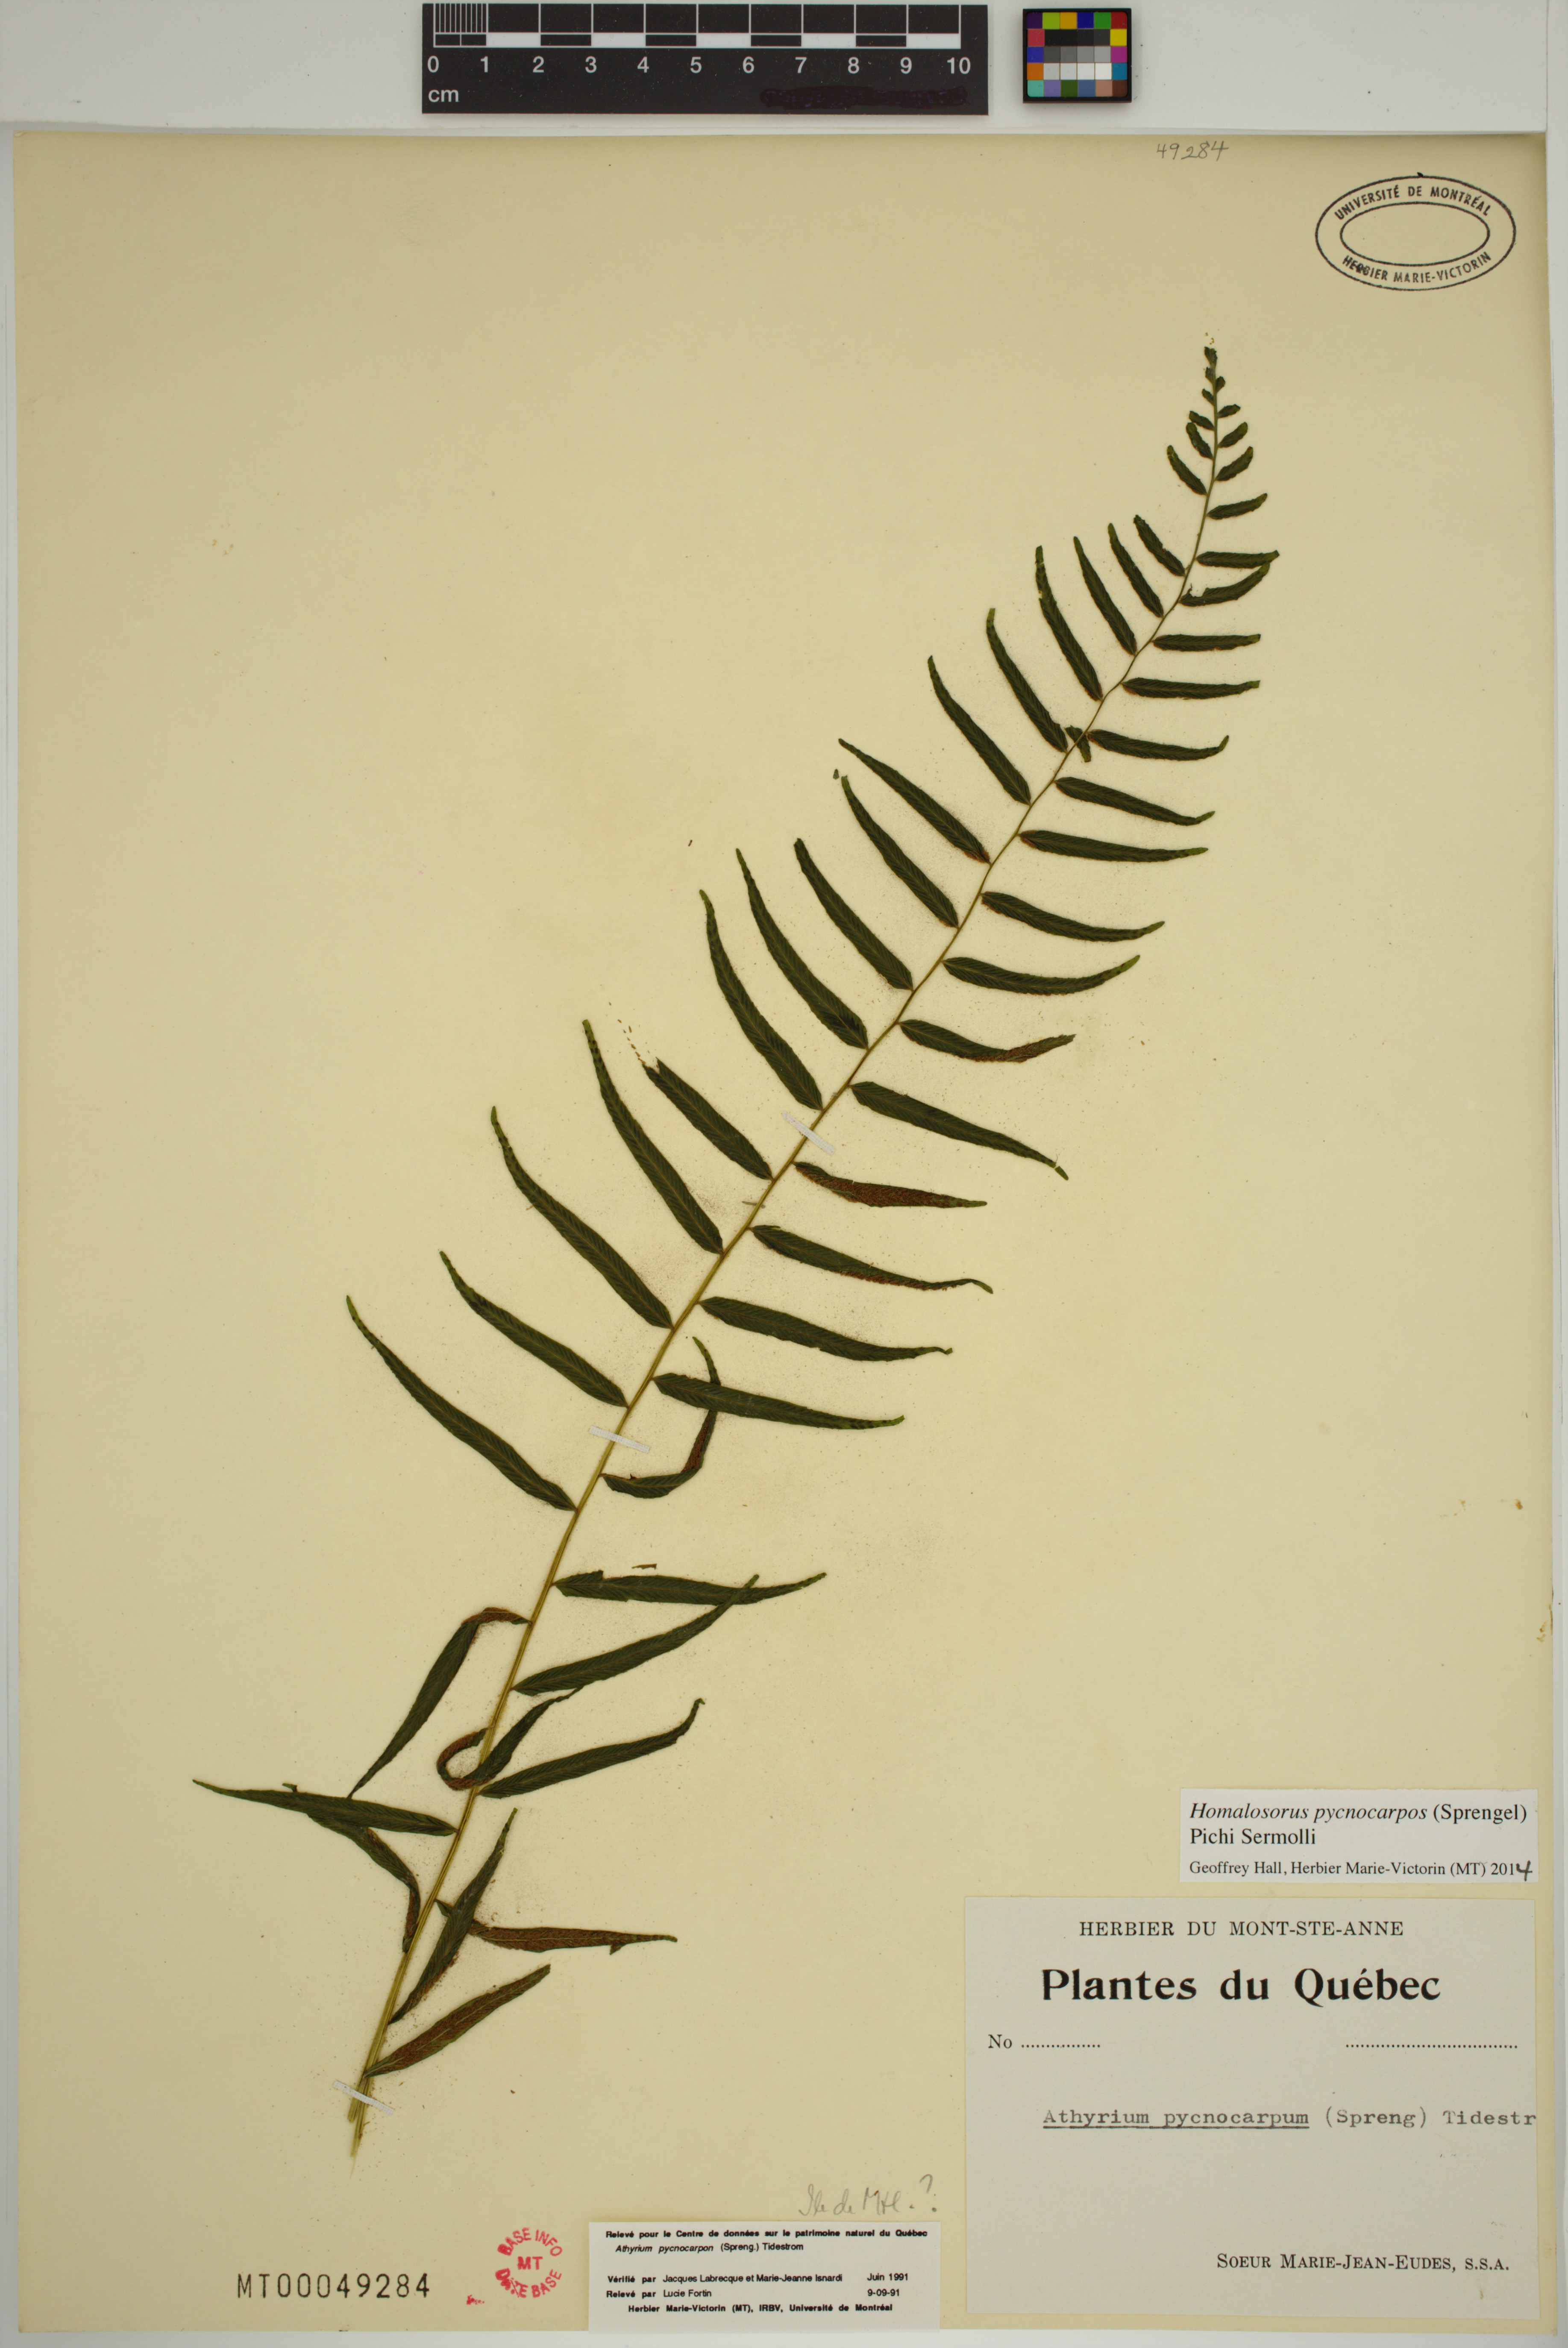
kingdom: Plantae
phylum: Tracheophyta
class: Polypodiopsida
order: Polypodiales
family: Diplaziopsidaceae
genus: Homalosorus
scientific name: Homalosorus pycnocarpos
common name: Glade fern
